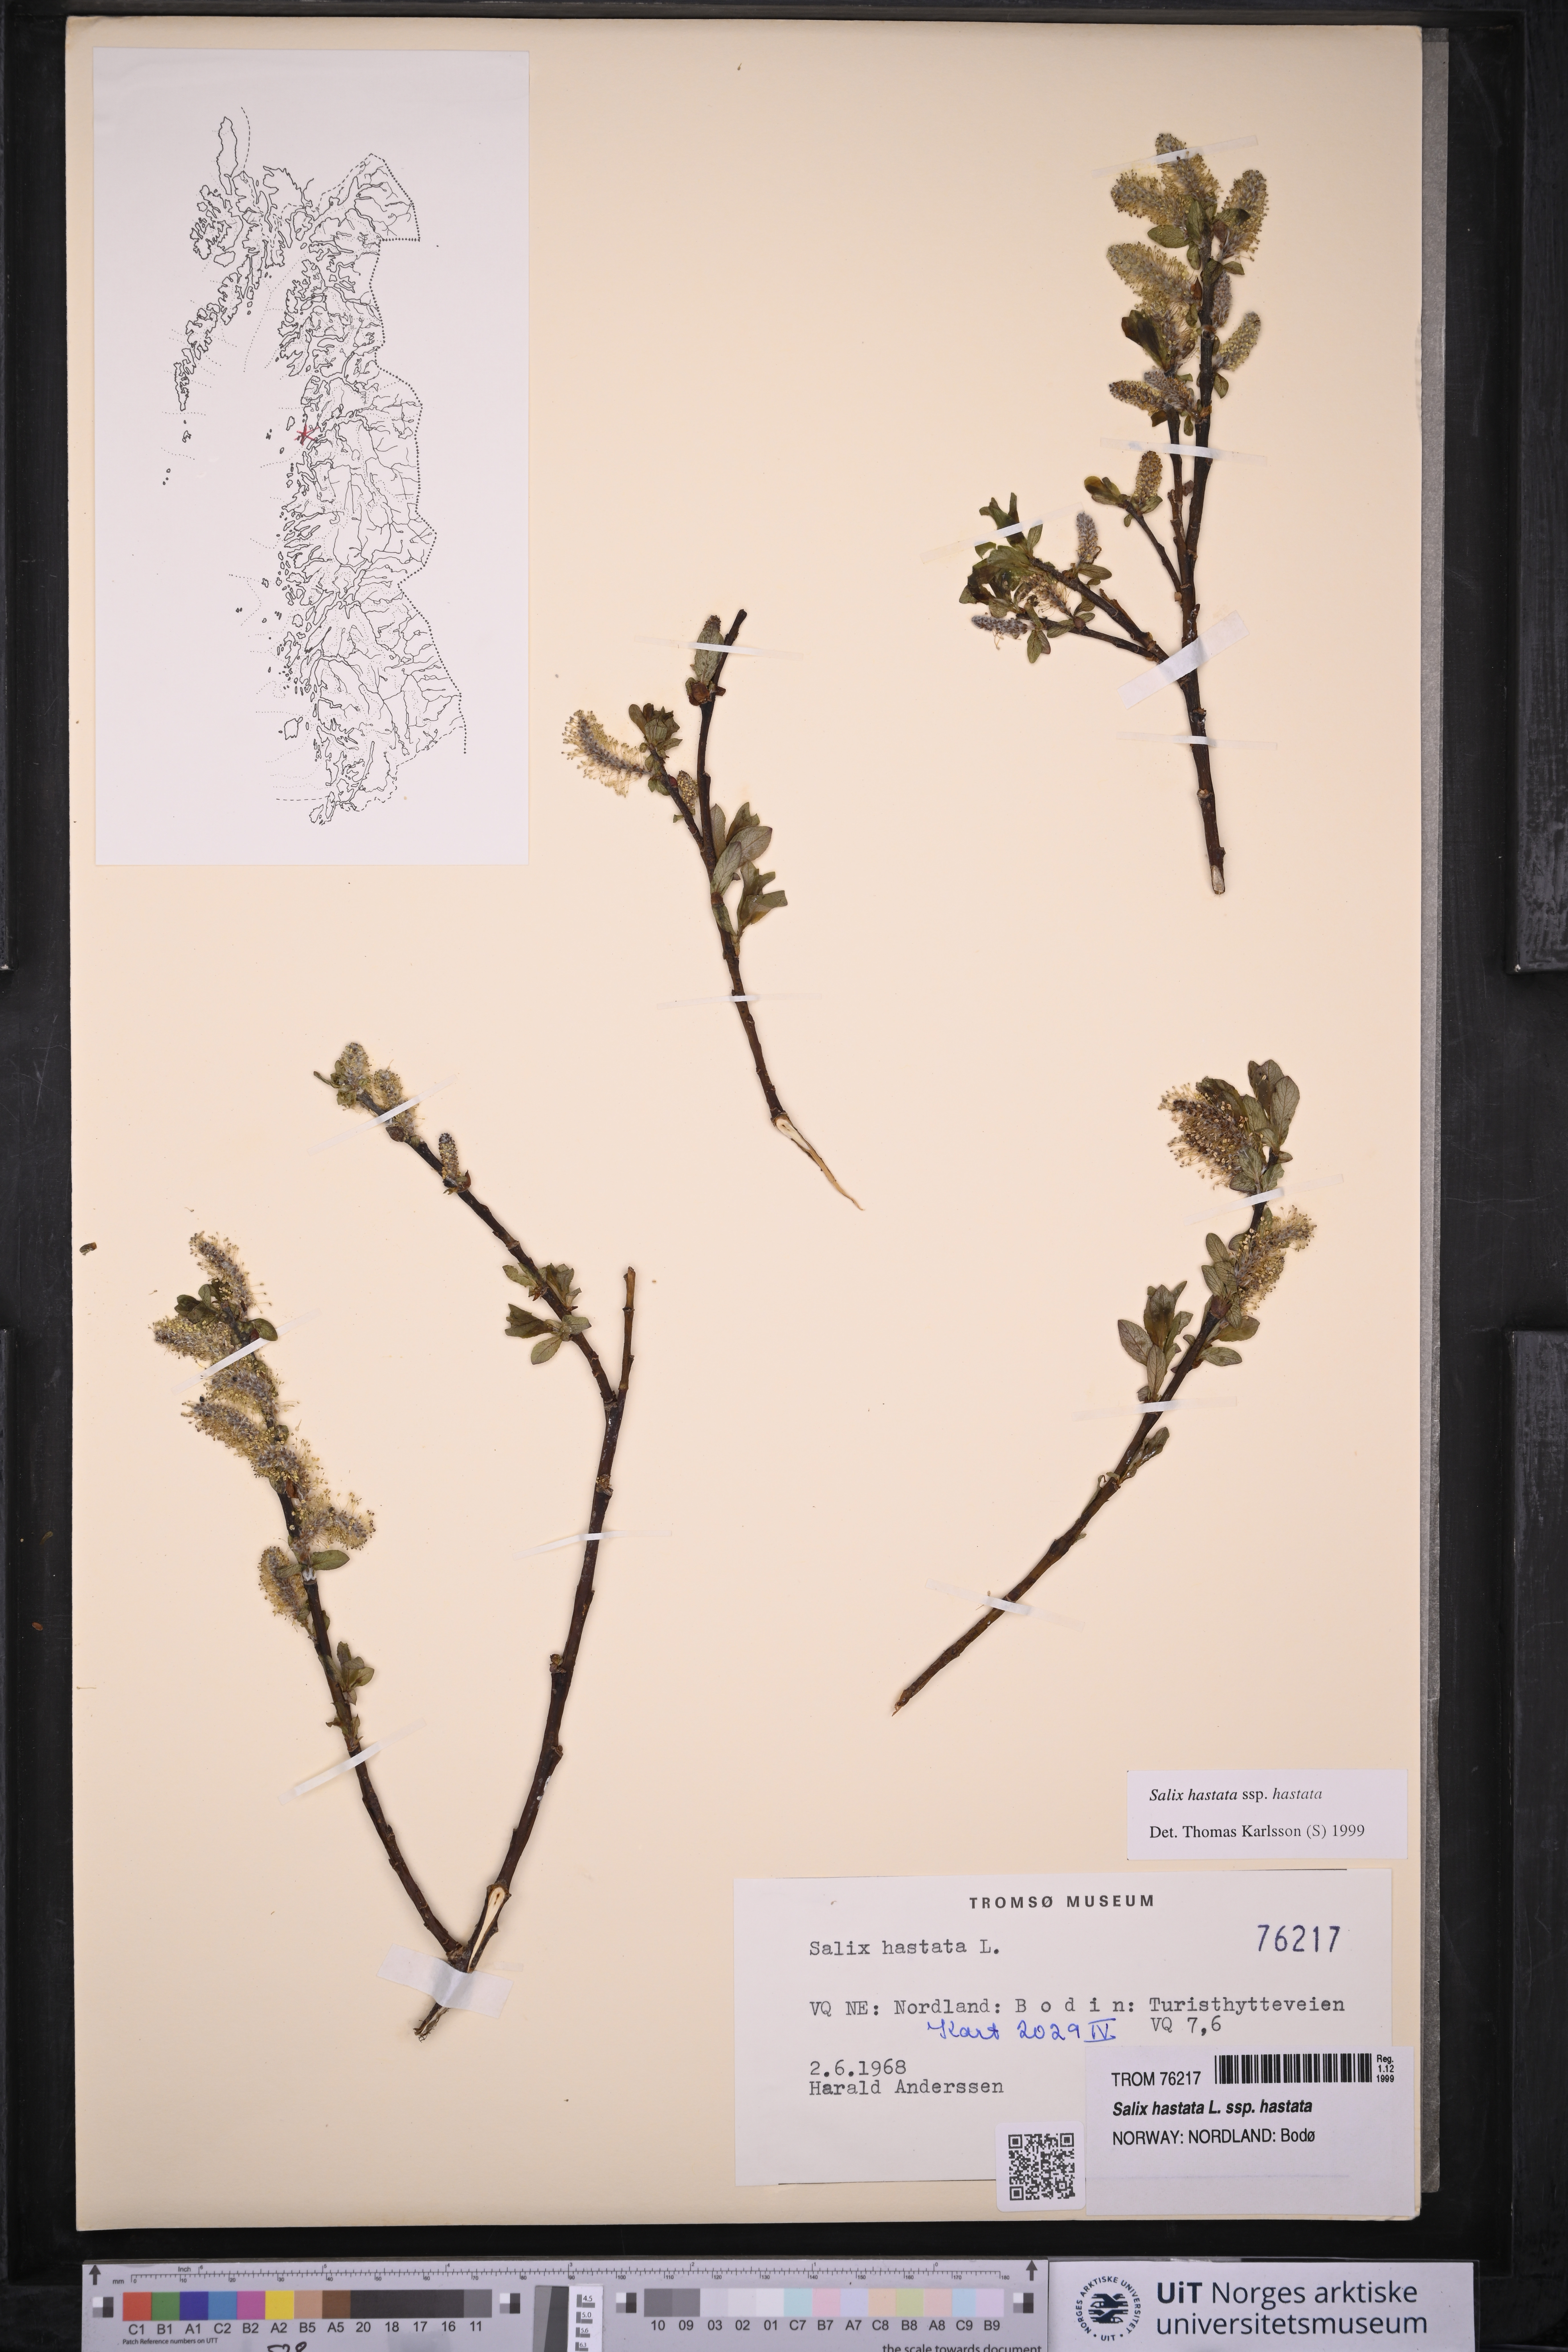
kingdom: Plantae
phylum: Tracheophyta
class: Magnoliopsida
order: Malpighiales
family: Salicaceae
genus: Salix
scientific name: Salix hastata
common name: Halberd willow
